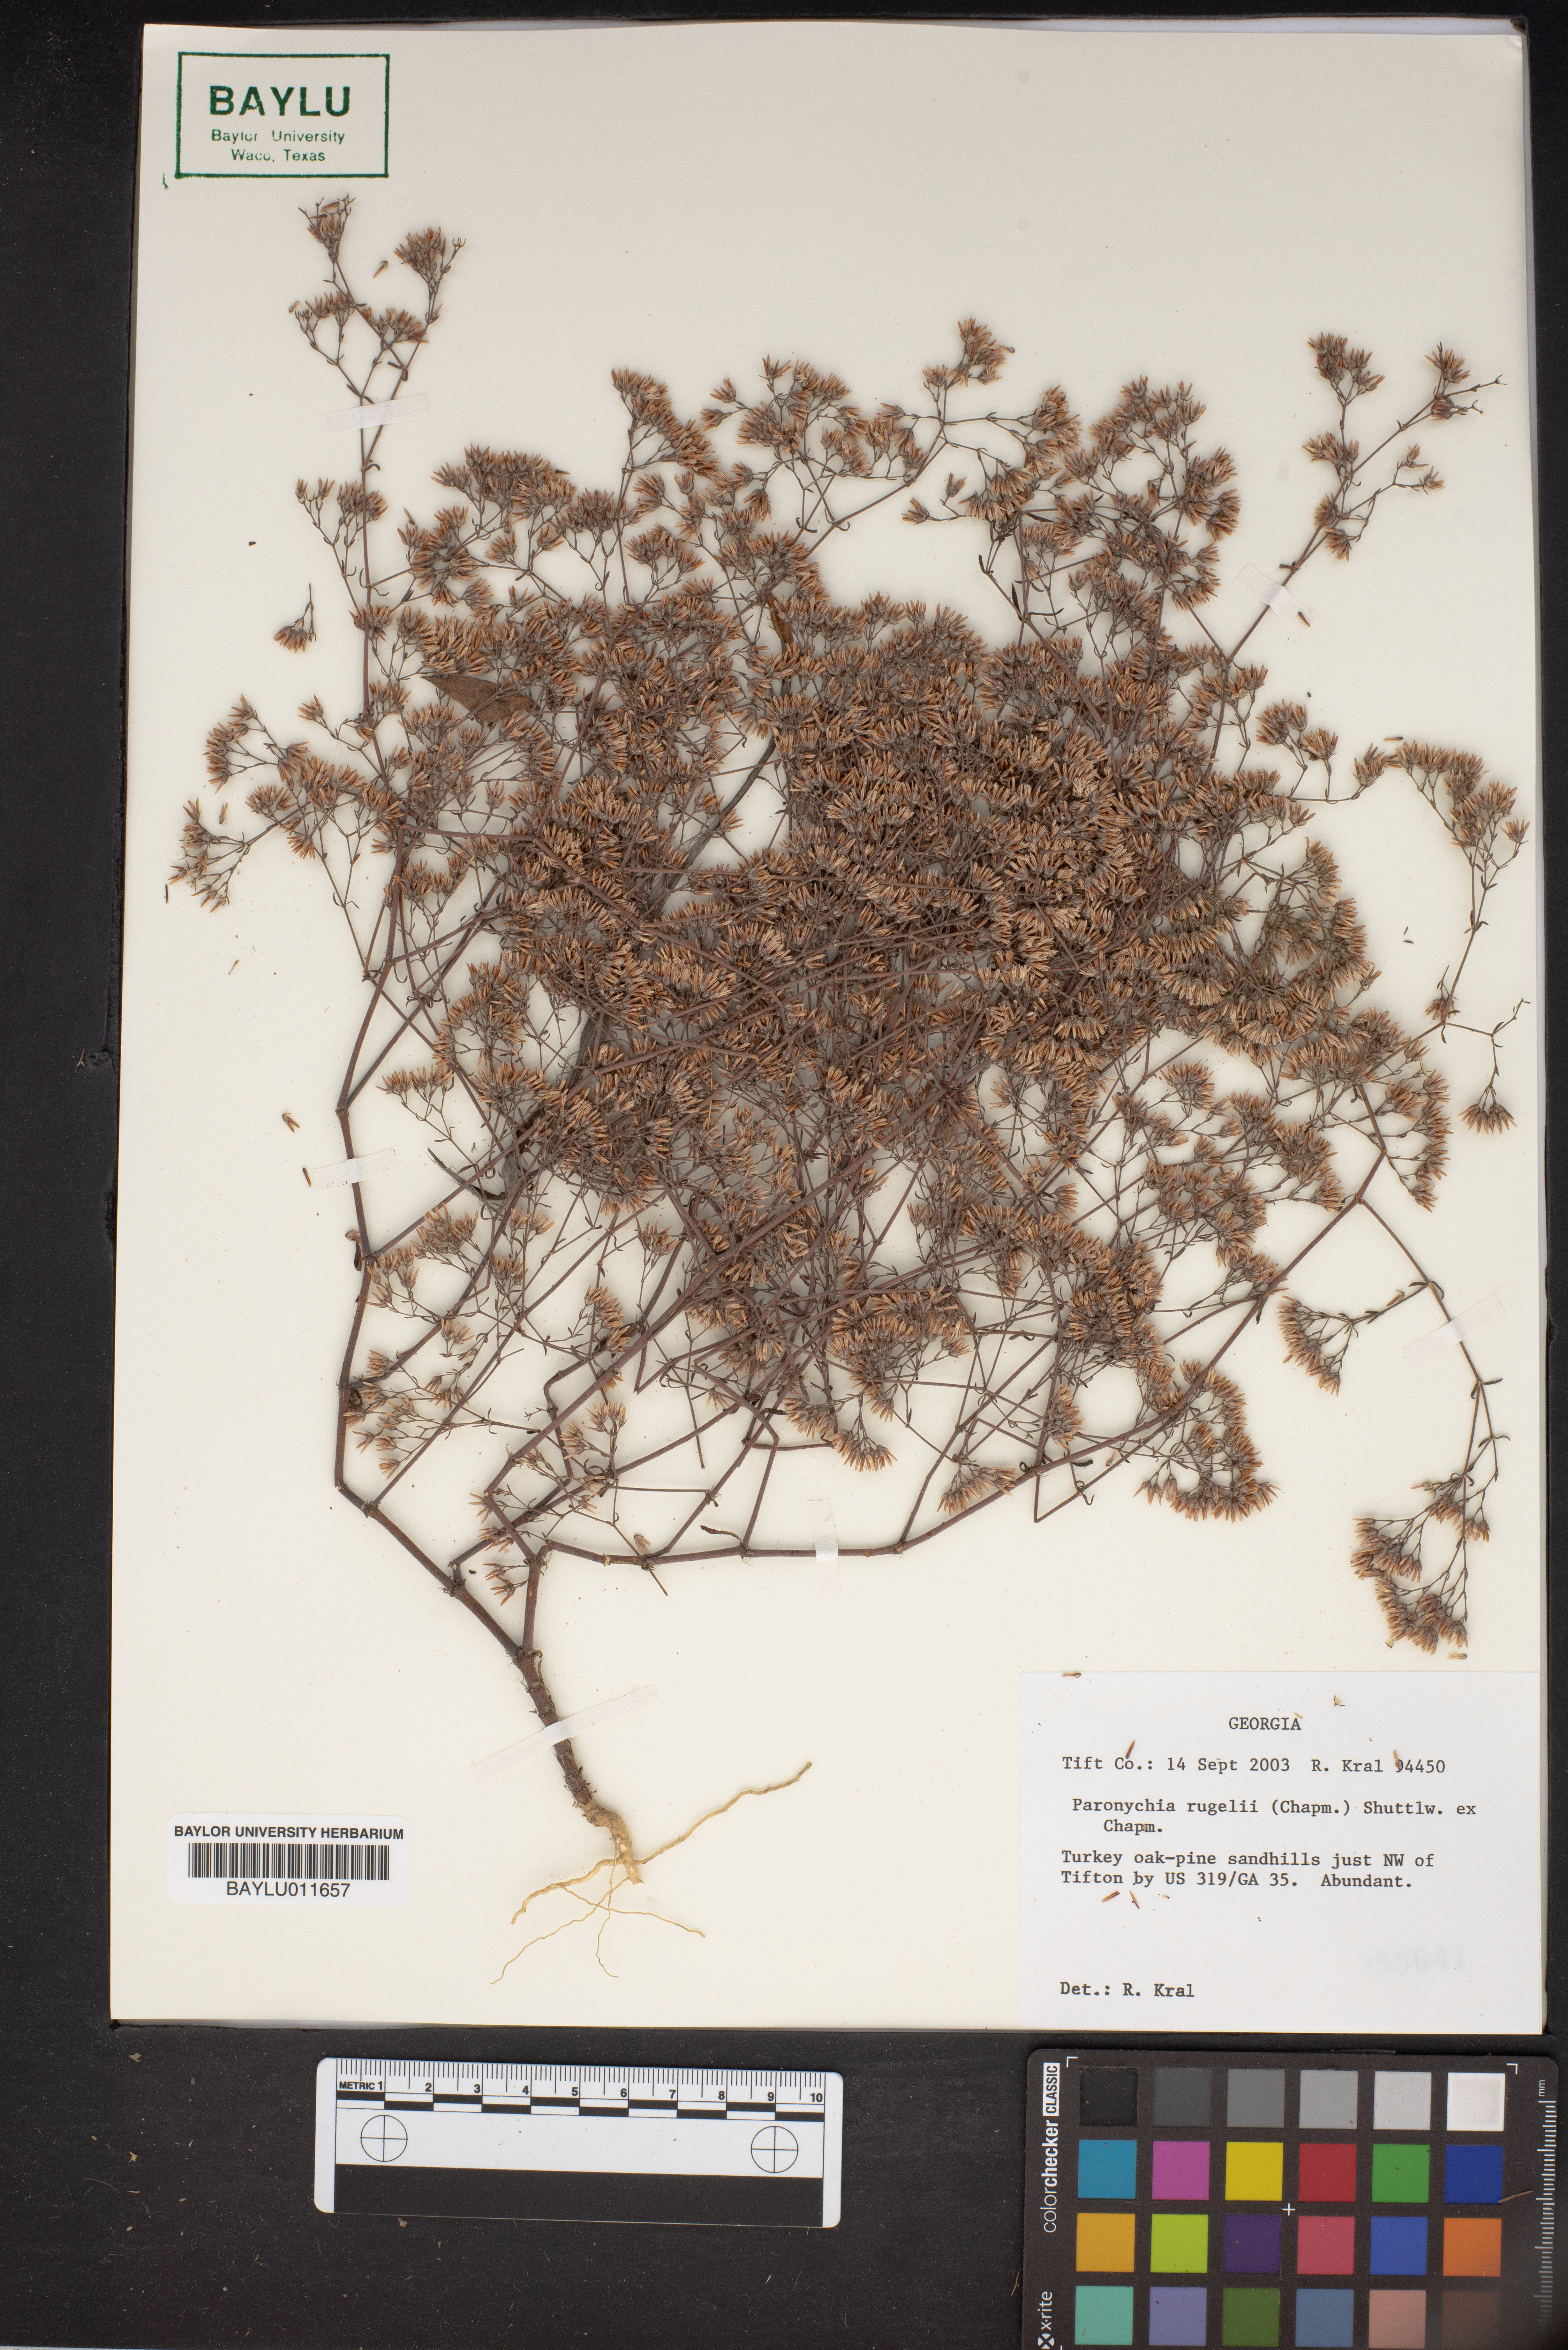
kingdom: Plantae
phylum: Tracheophyta
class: Magnoliopsida
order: Caryophyllales
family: Caryophyllaceae
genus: Paronychia
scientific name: Paronychia rugelii
